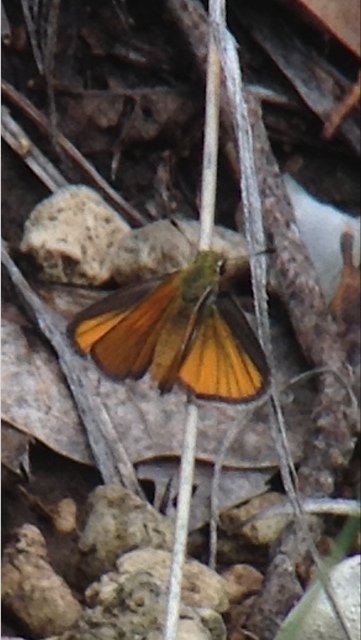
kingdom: Animalia
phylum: Arthropoda
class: Insecta
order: Lepidoptera
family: Hesperiidae
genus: Oarisma
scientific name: Oarisma edwardsii
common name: Edwards' Skipperling
